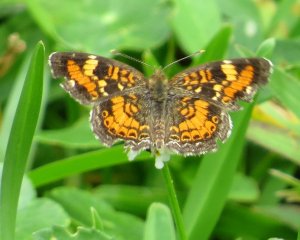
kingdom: Animalia
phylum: Arthropoda
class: Insecta
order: Lepidoptera
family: Nymphalidae
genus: Phyciodes
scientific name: Phyciodes phaon
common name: Phaon Crescent
